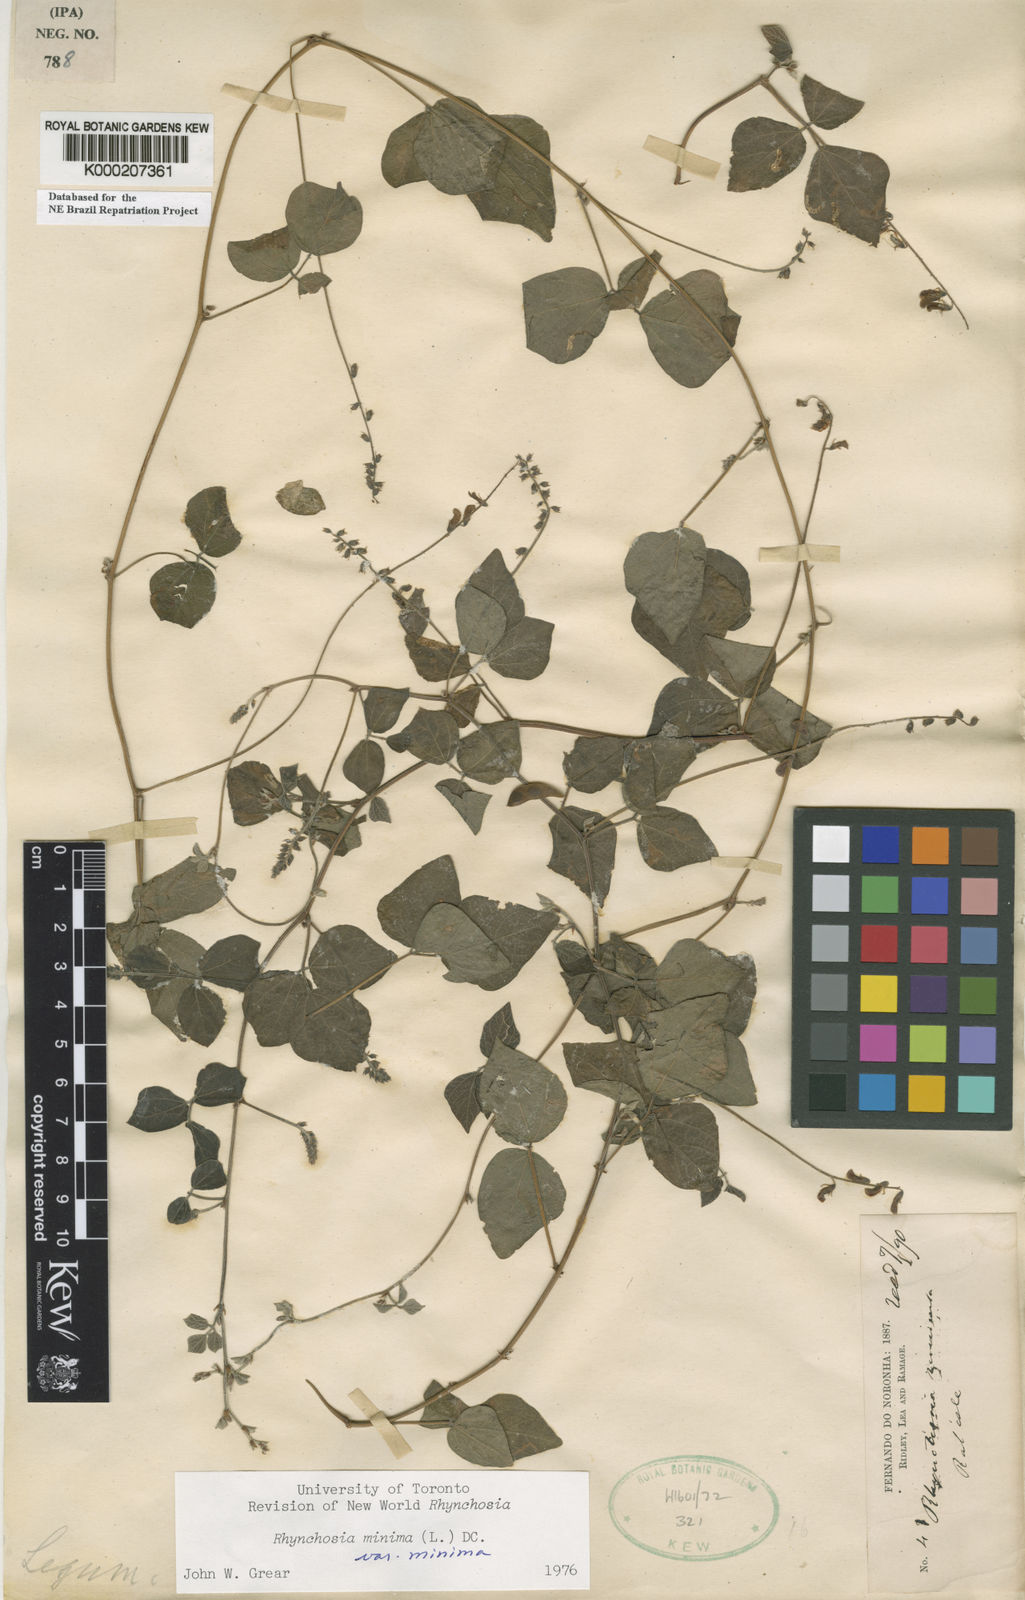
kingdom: Plantae
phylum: Tracheophyta
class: Magnoliopsida
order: Fabales
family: Fabaceae
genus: Rhynchosia
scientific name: Rhynchosia minima
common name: Least snoutbean
